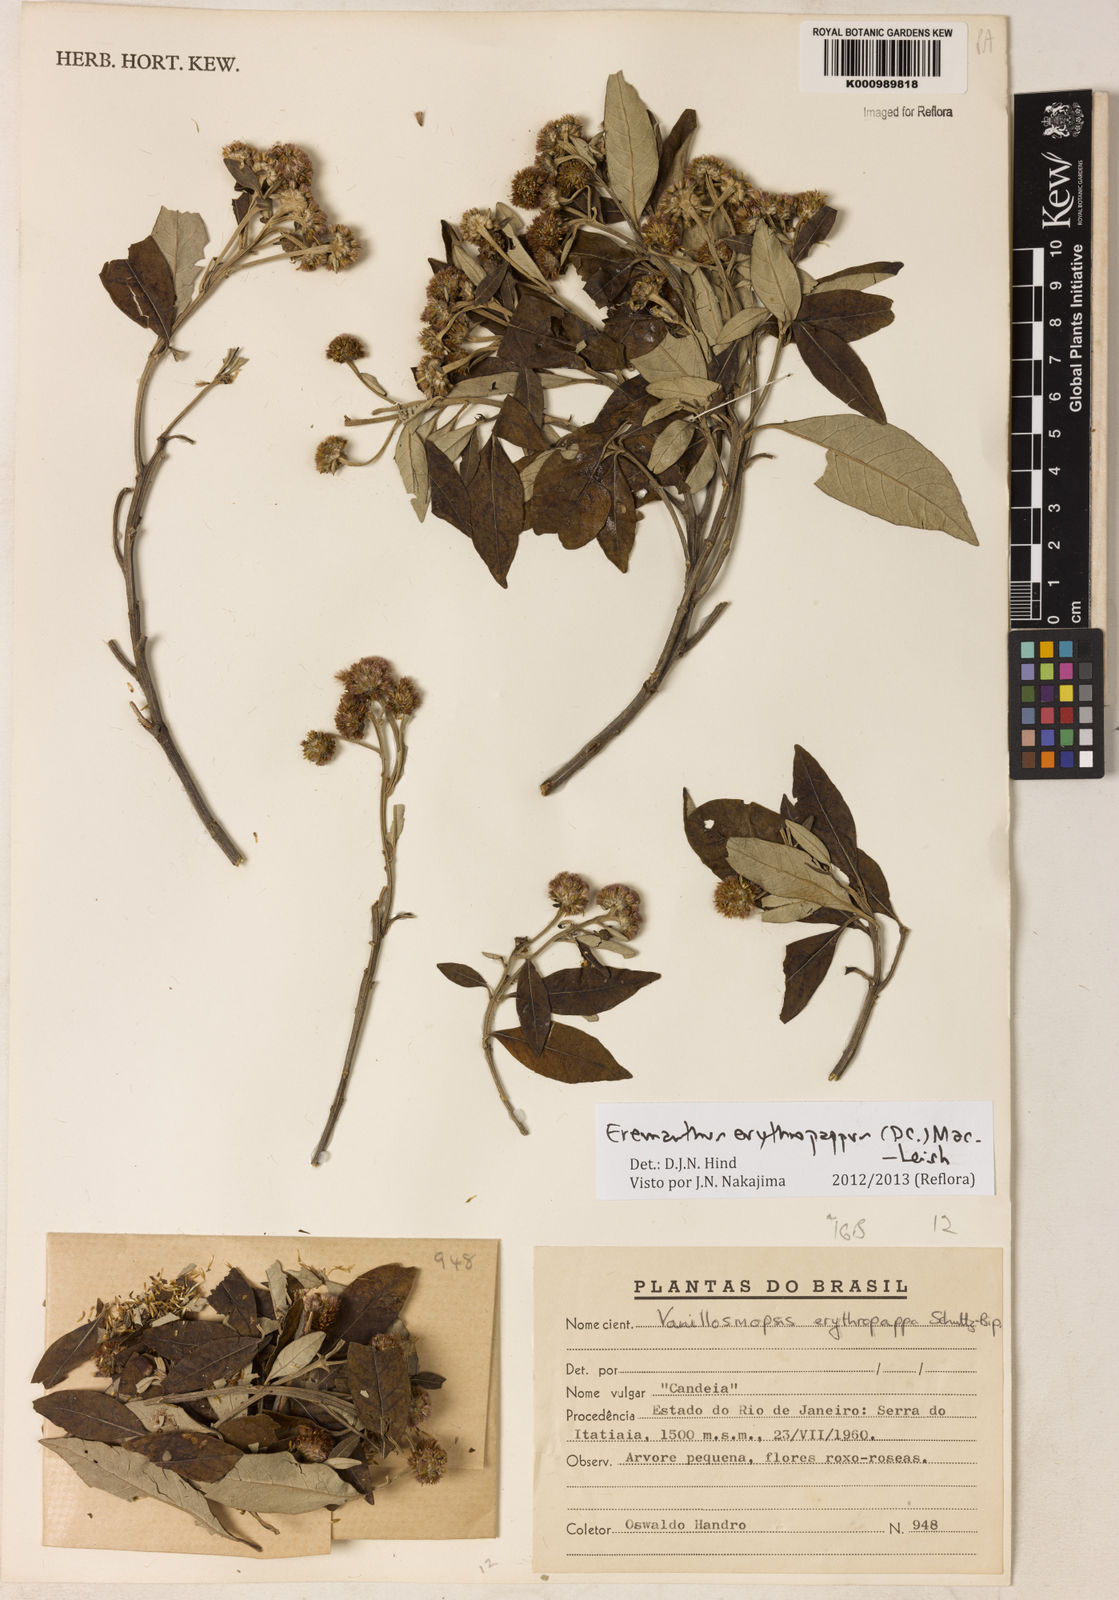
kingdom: Plantae
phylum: Tracheophyta
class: Magnoliopsida
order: Asterales
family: Asteraceae
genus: Eremanthus
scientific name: Eremanthus erythropappus
